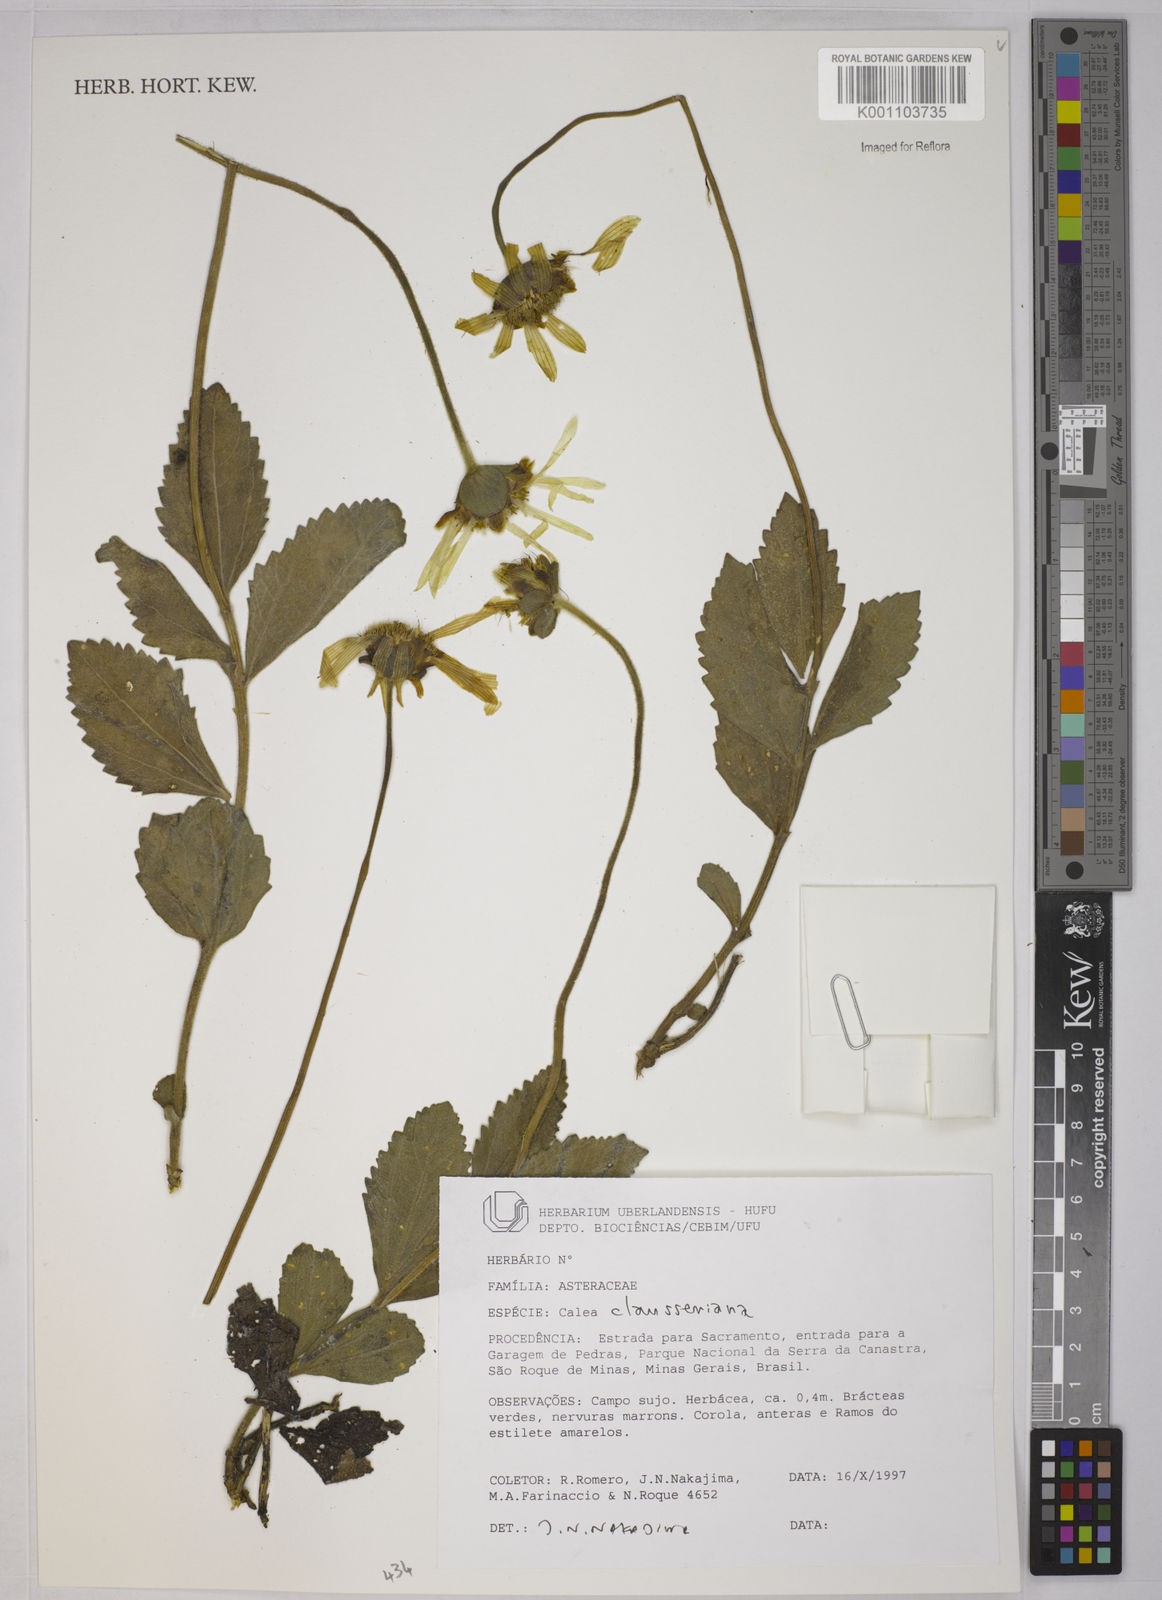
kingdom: Plantae
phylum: Tracheophyta
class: Magnoliopsida
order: Asterales
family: Asteraceae
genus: Calea
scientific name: Calea clausseniana
